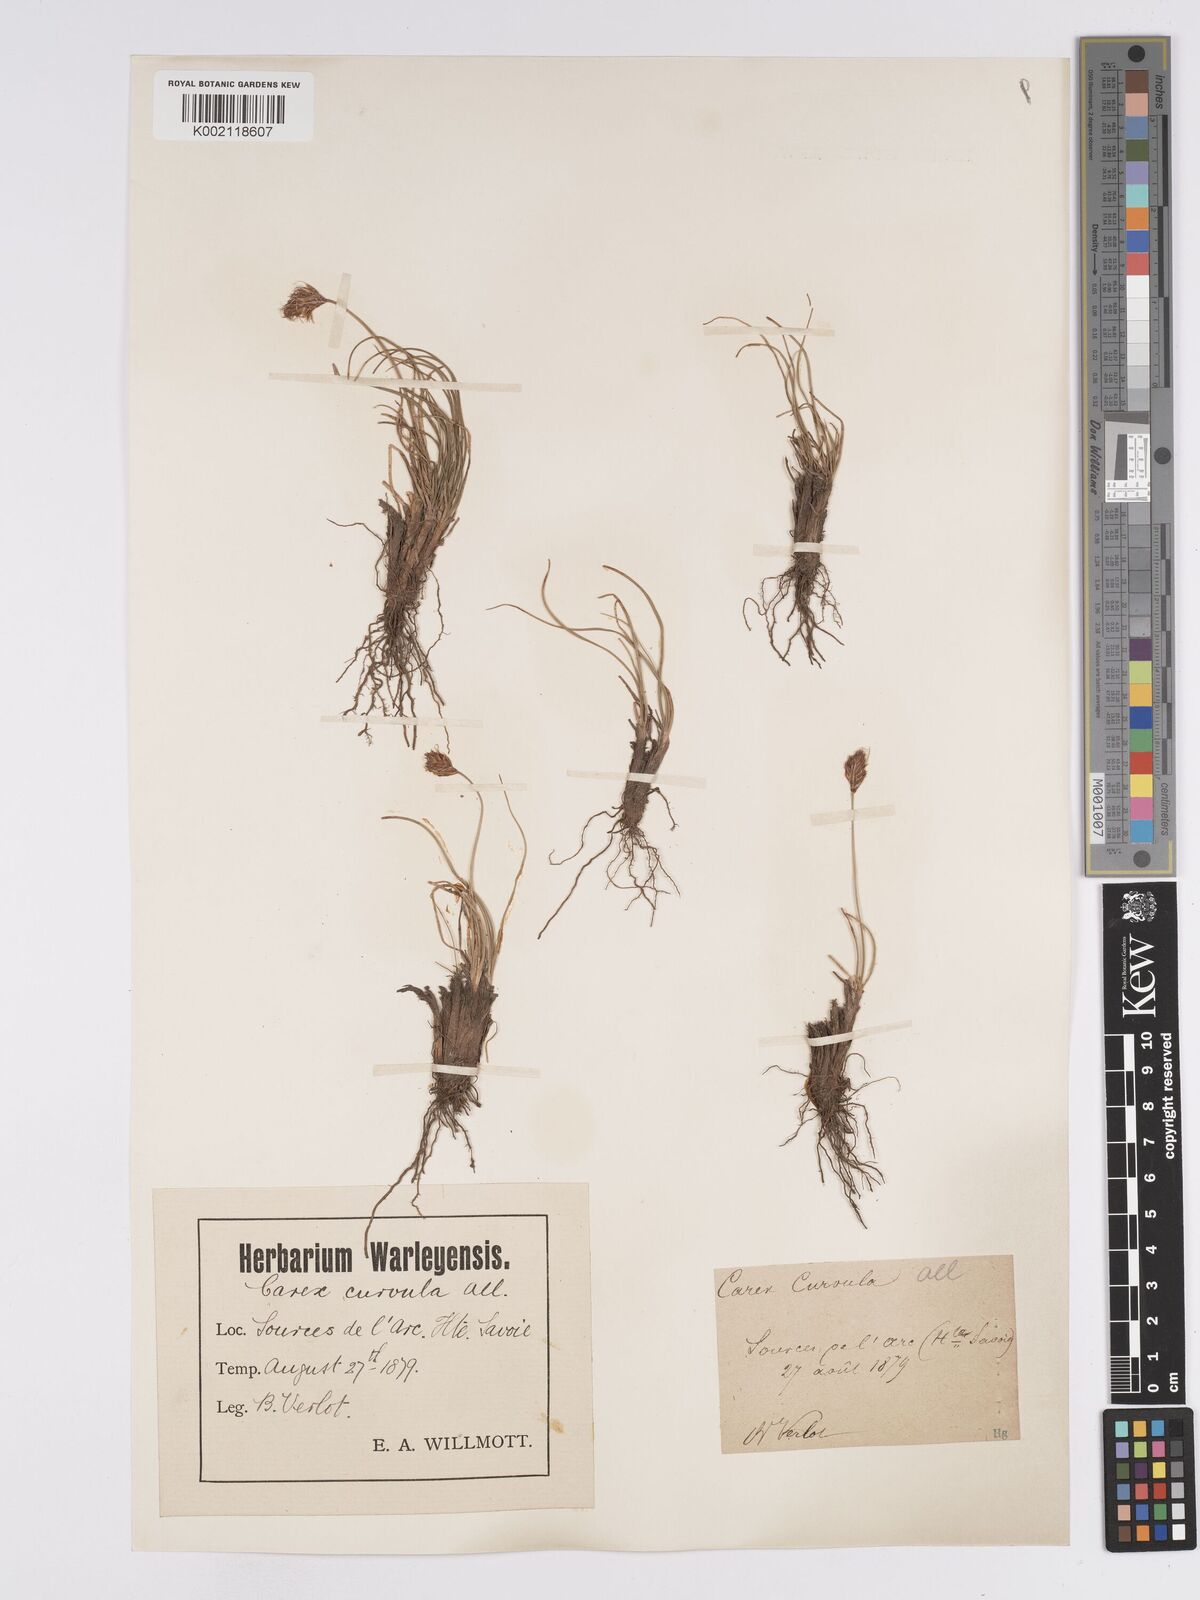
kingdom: Plantae
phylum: Tracheophyta
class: Liliopsida
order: Poales
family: Cyperaceae
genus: Carex
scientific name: Carex curvula
